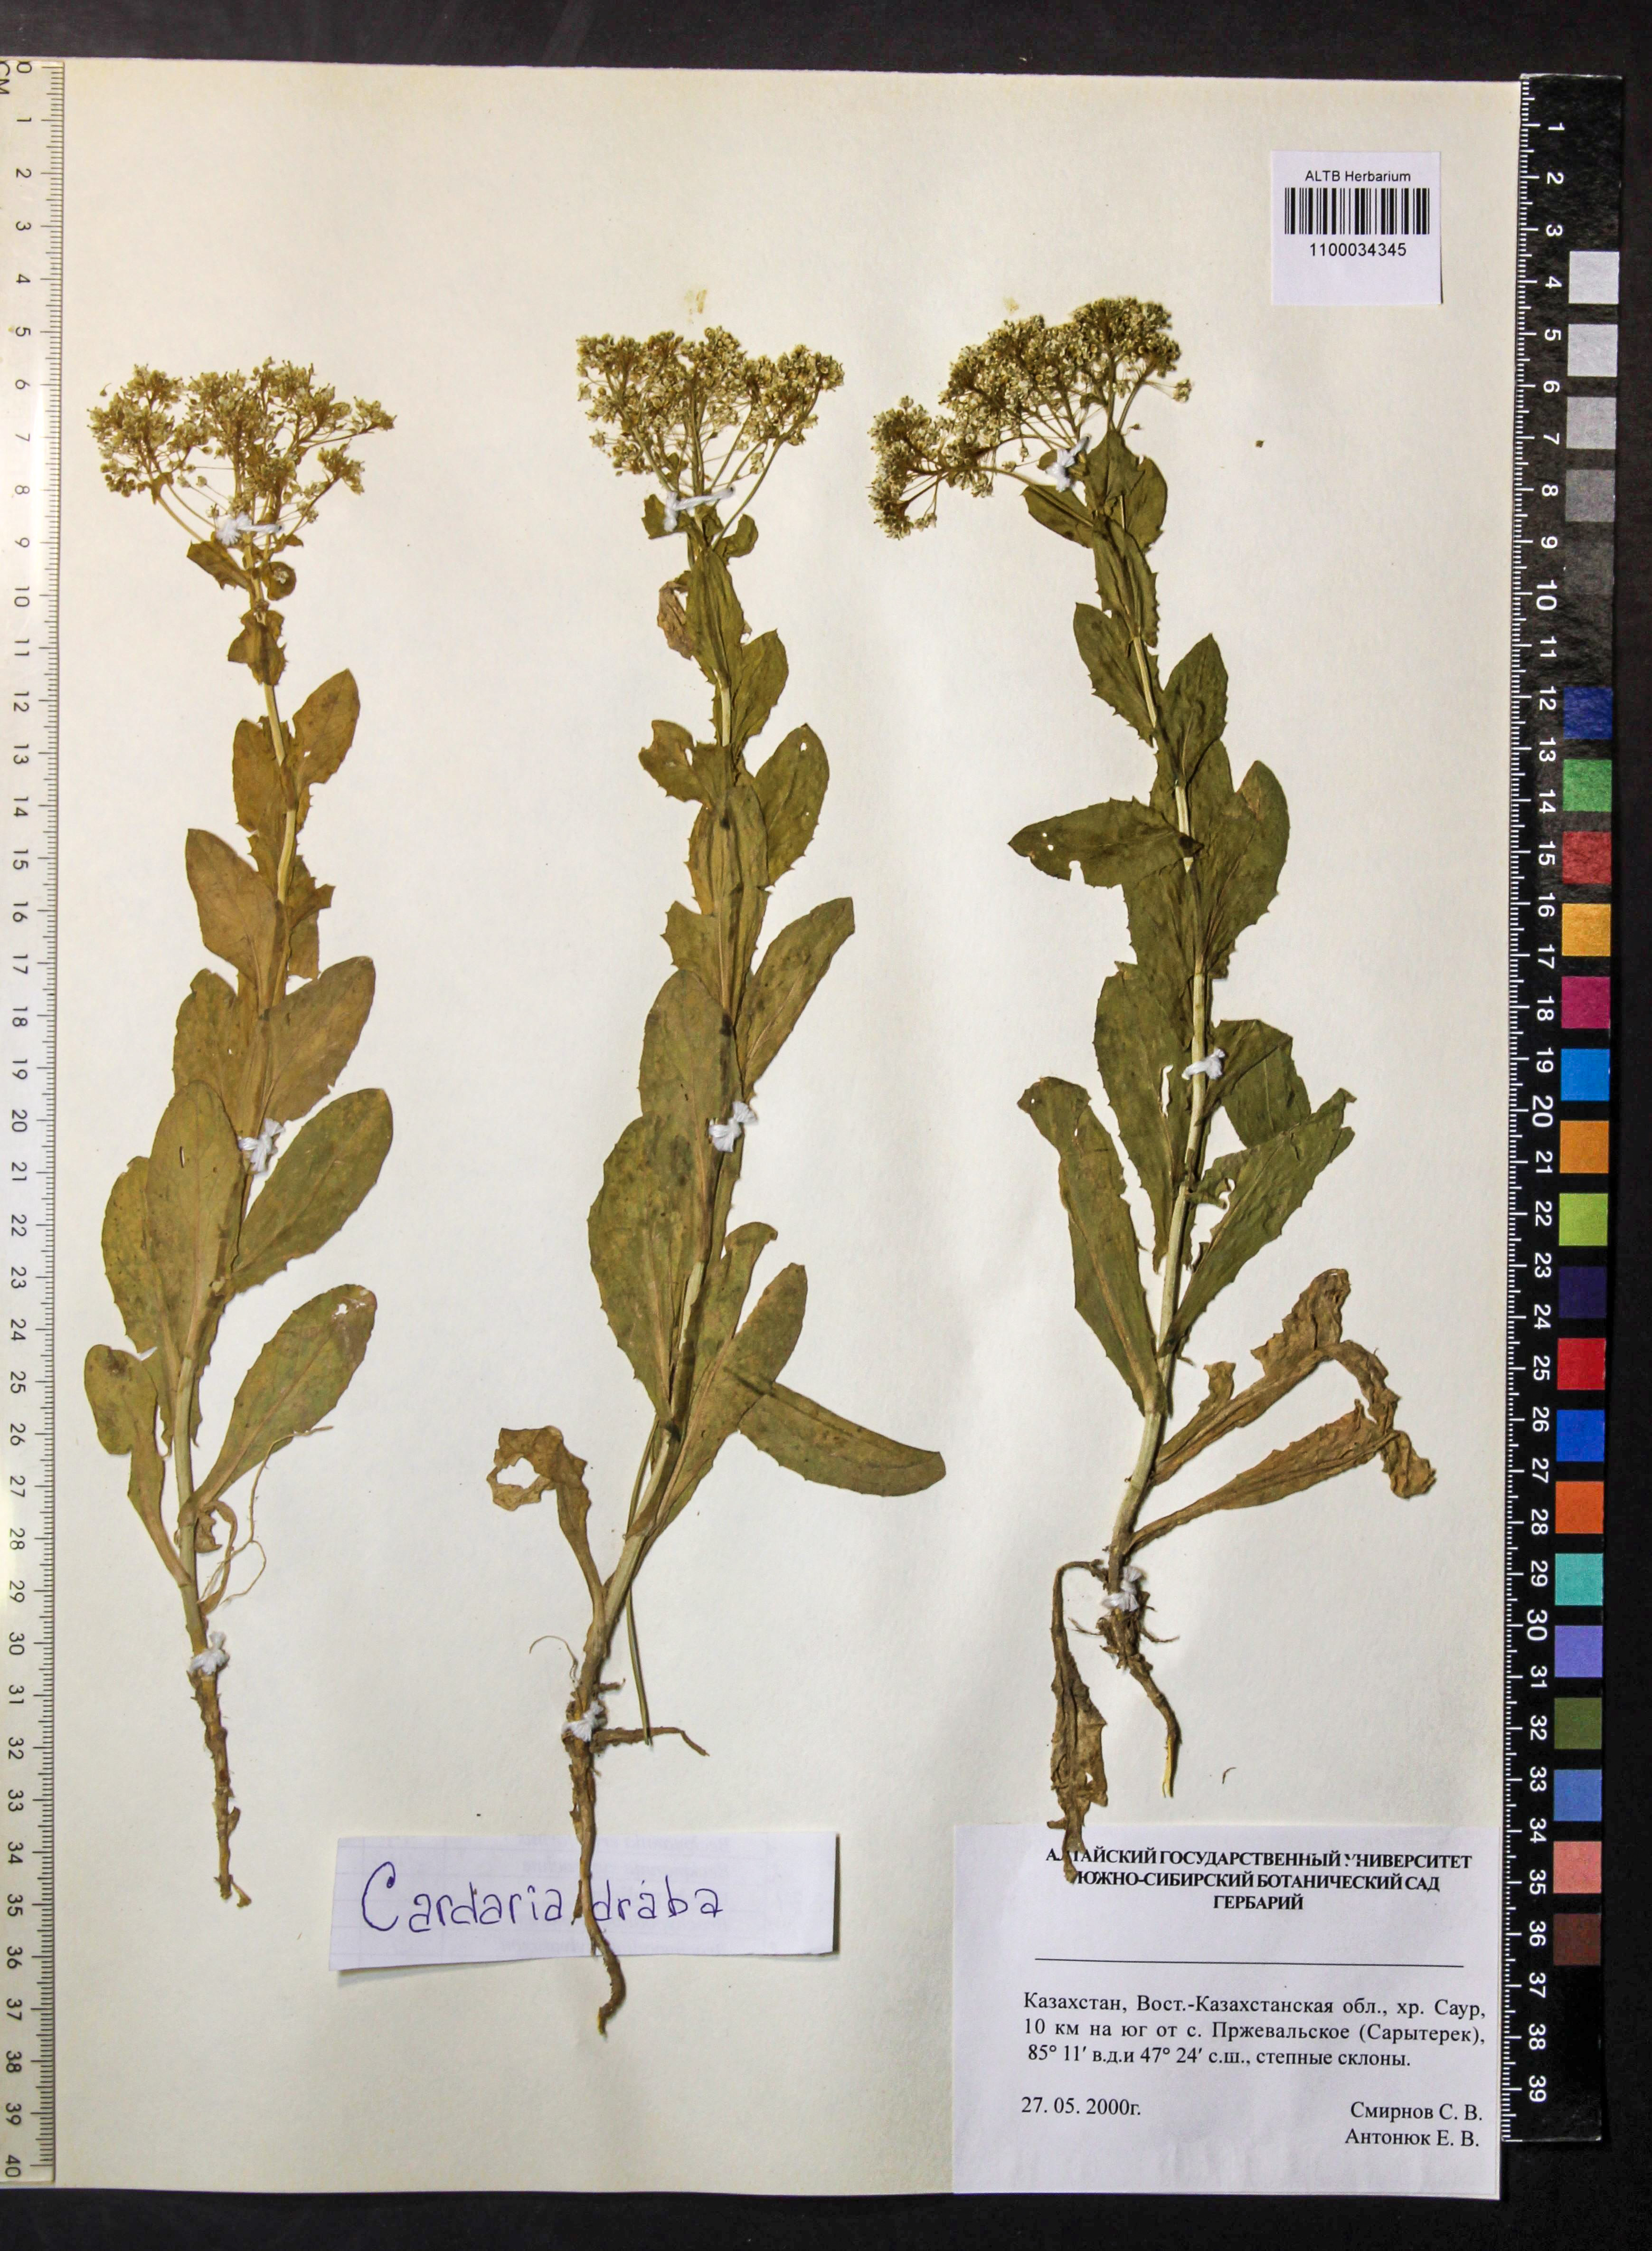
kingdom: Plantae
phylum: Tracheophyta
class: Magnoliopsida
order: Brassicales
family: Brassicaceae
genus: Lepidium
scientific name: Lepidium draba
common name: Hoary cress
